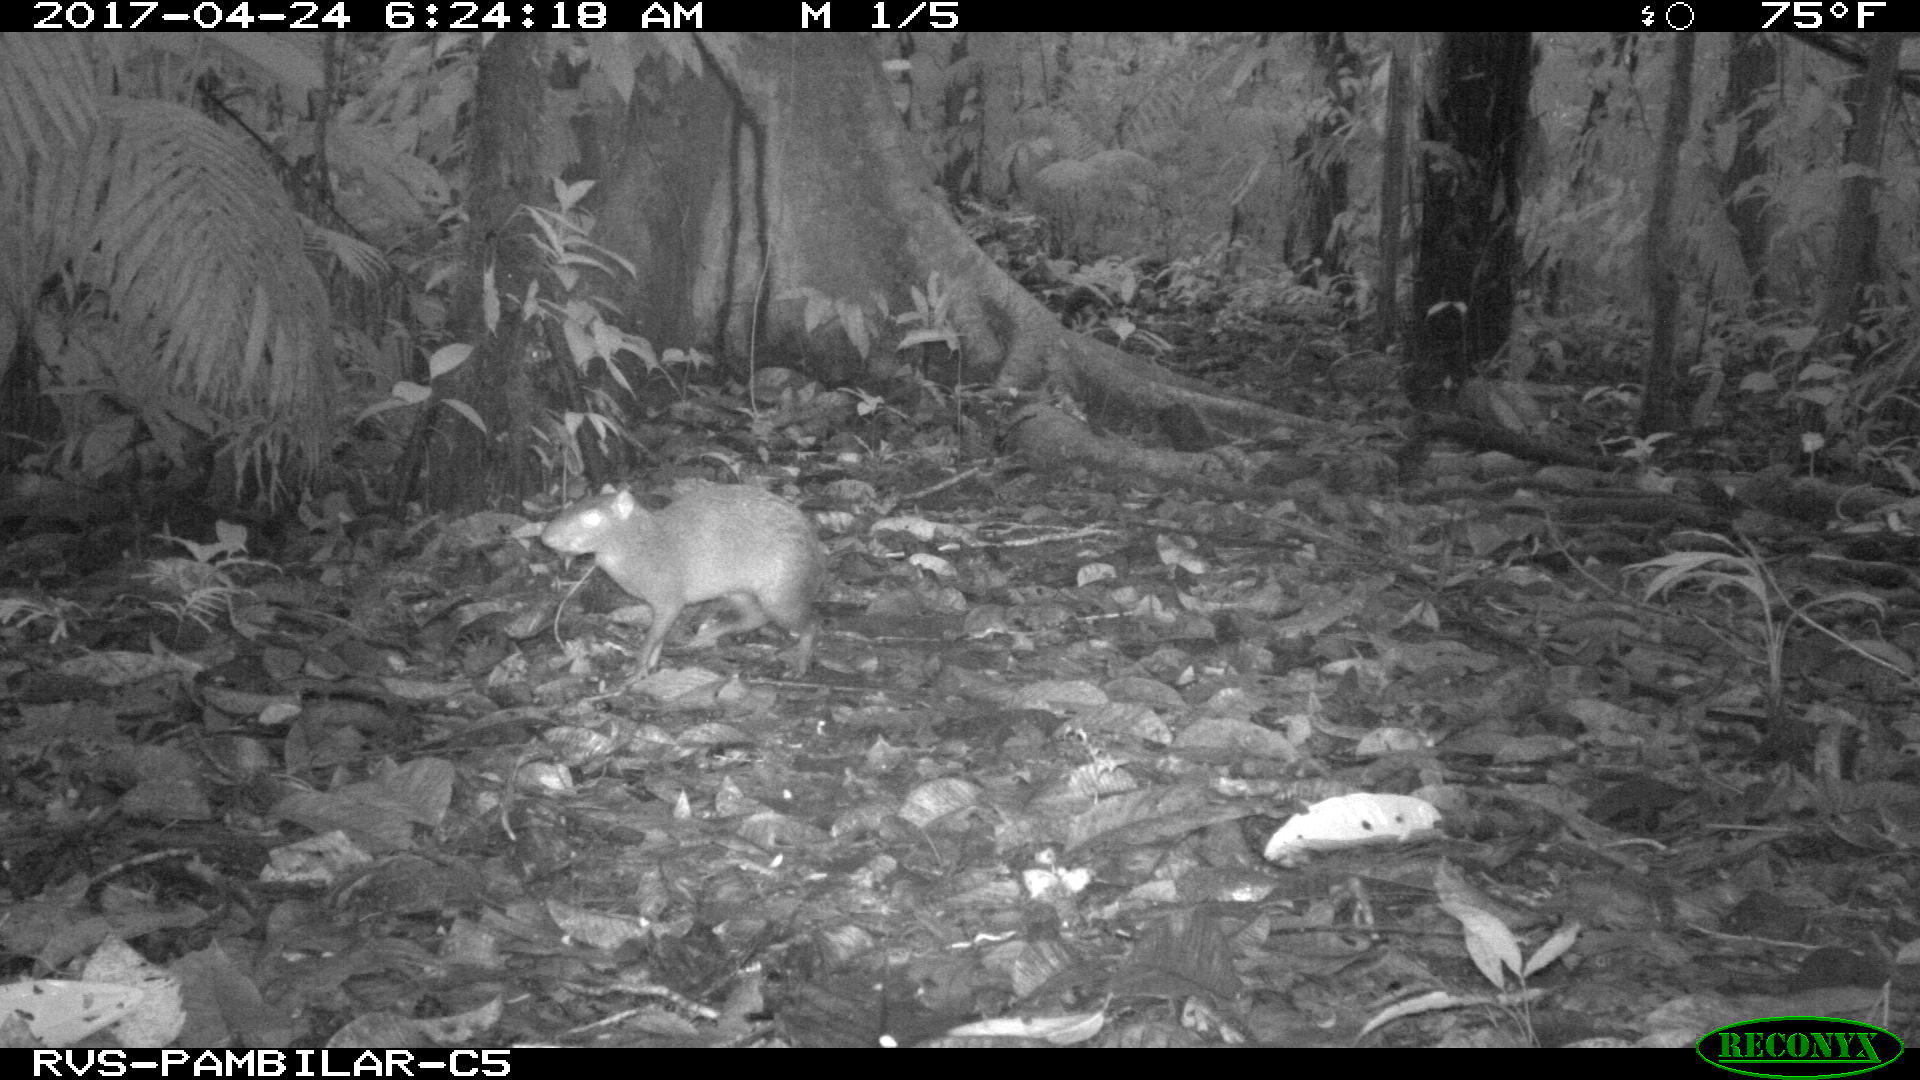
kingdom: Animalia
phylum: Chordata
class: Mammalia
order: Rodentia
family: Dasyproctidae
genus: Dasyprocta
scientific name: Dasyprocta punctata
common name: Central american agouti
